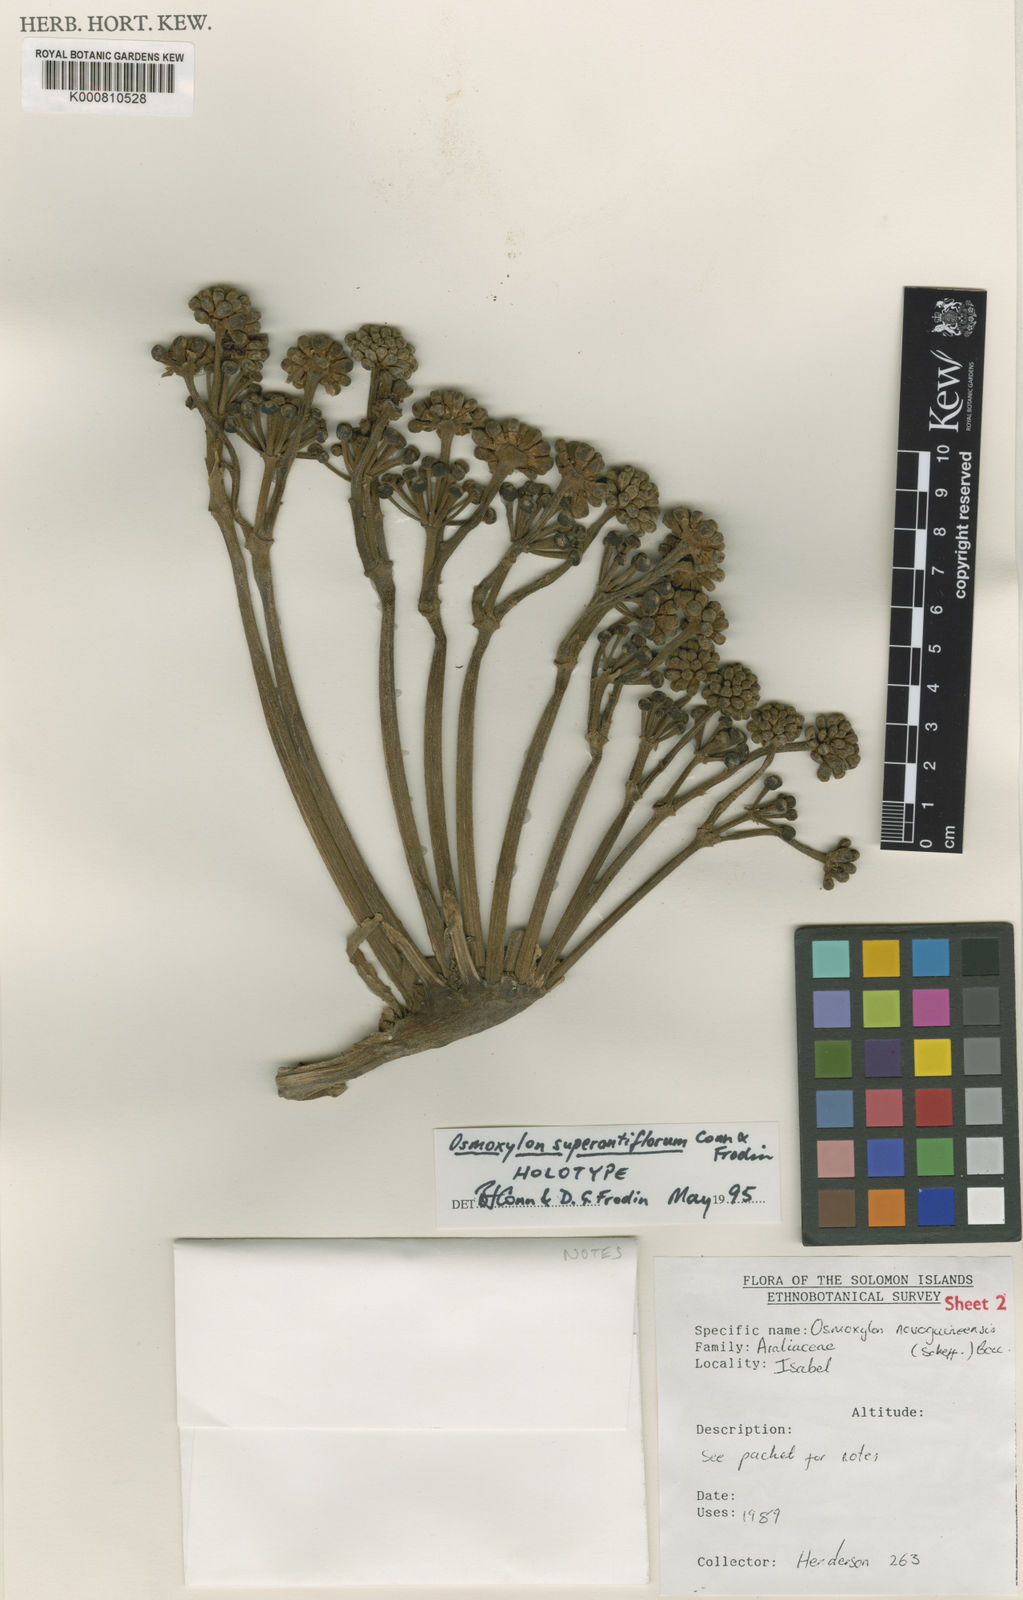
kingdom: Plantae
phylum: Tracheophyta
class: Magnoliopsida
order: Apiales
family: Araliaceae
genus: Osmoxylon
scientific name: Osmoxylon superantiflorum
